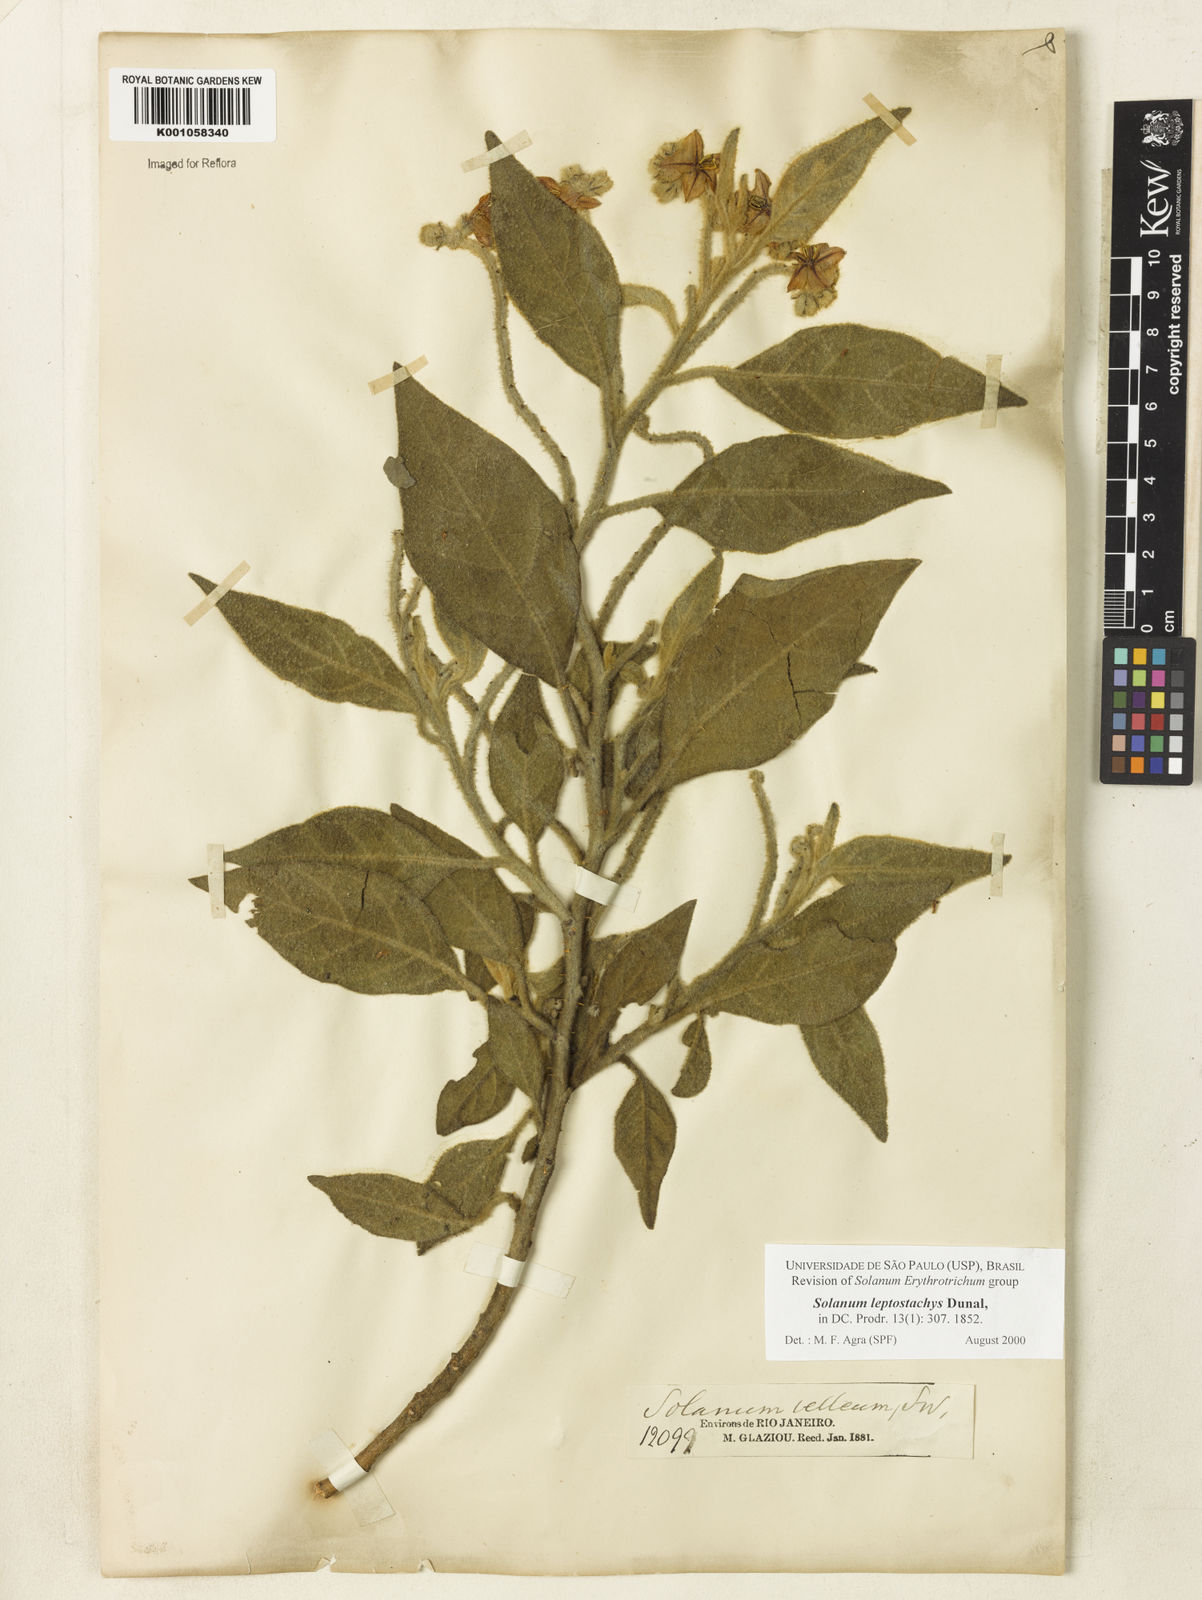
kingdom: Plantae
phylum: Tracheophyta
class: Magnoliopsida
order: Solanales
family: Solanaceae
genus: Solanum
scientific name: Solanum leptostachys
